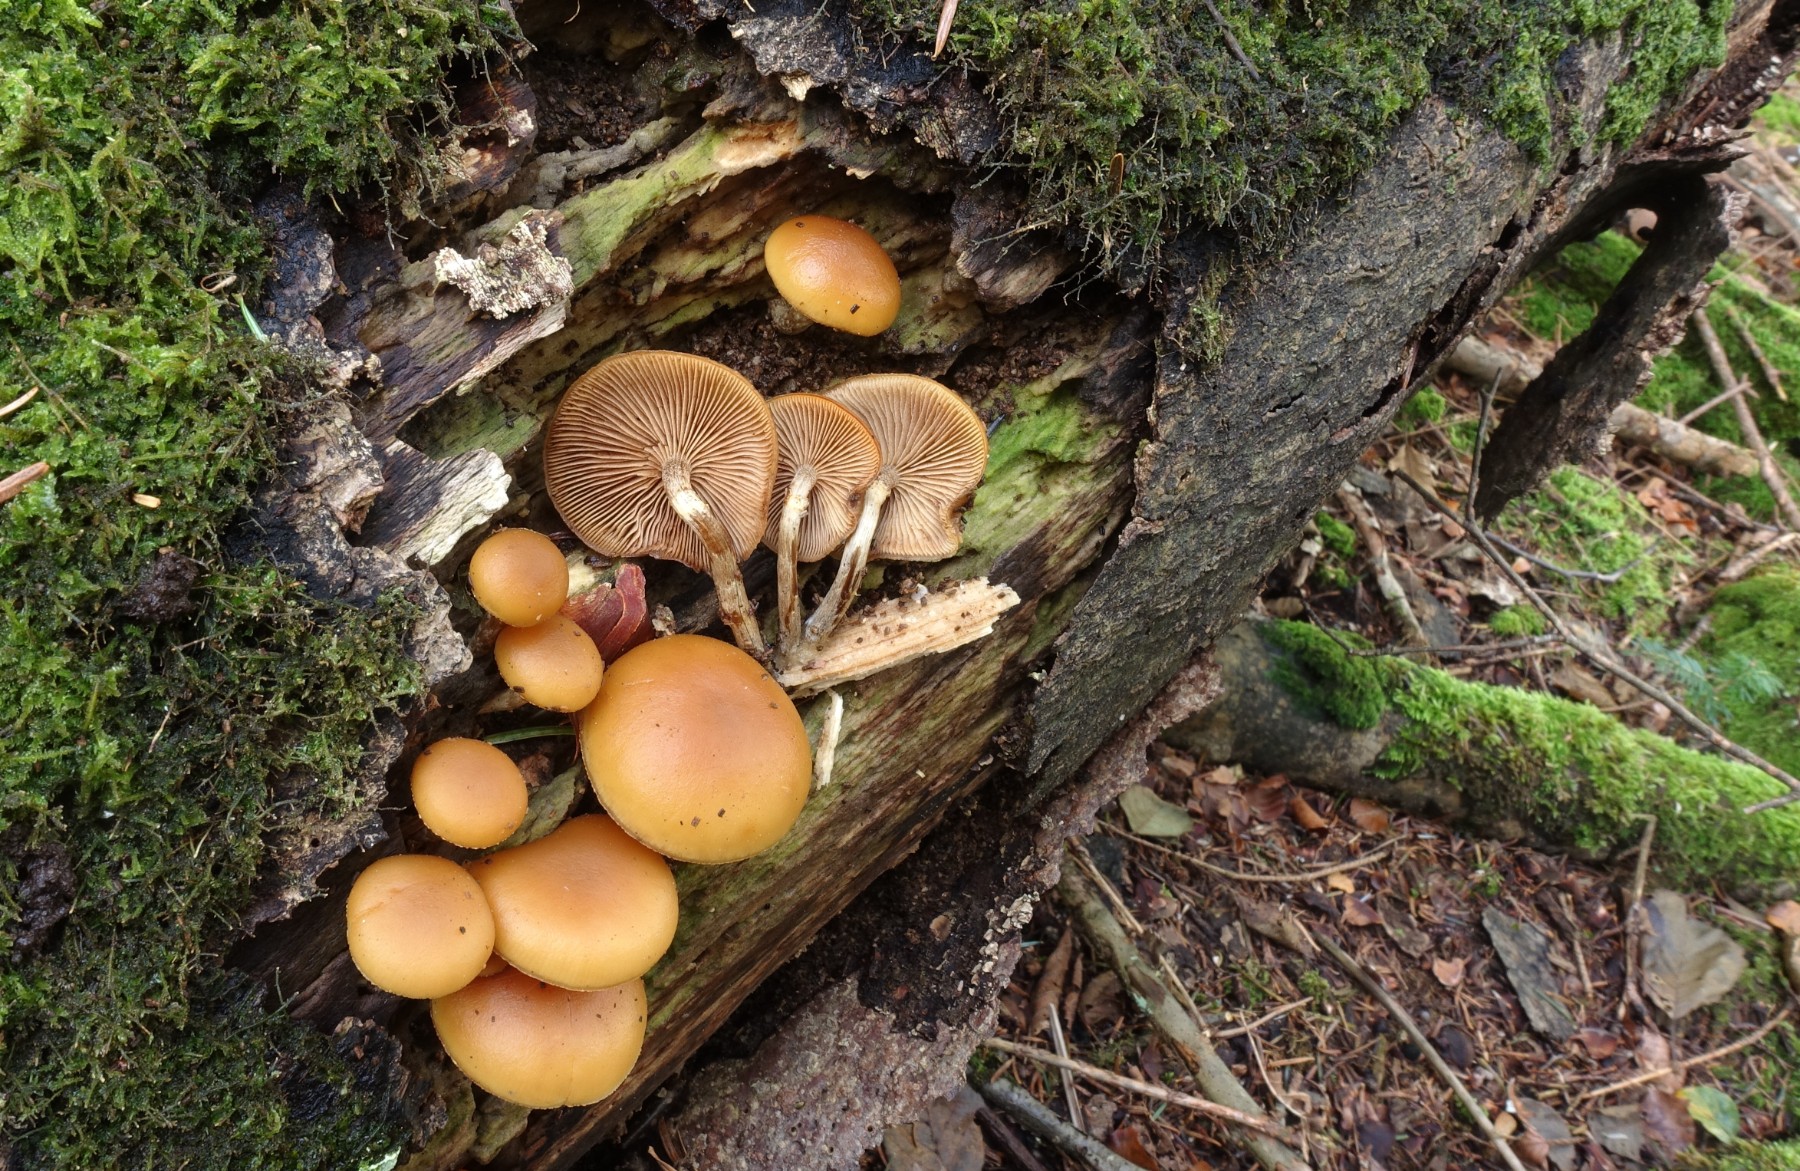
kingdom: Fungi
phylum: Basidiomycota
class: Agaricomycetes
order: Agaricales
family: Hymenogastraceae
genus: Galerina
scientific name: Galerina marginata
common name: randbæltet hjelmhat
